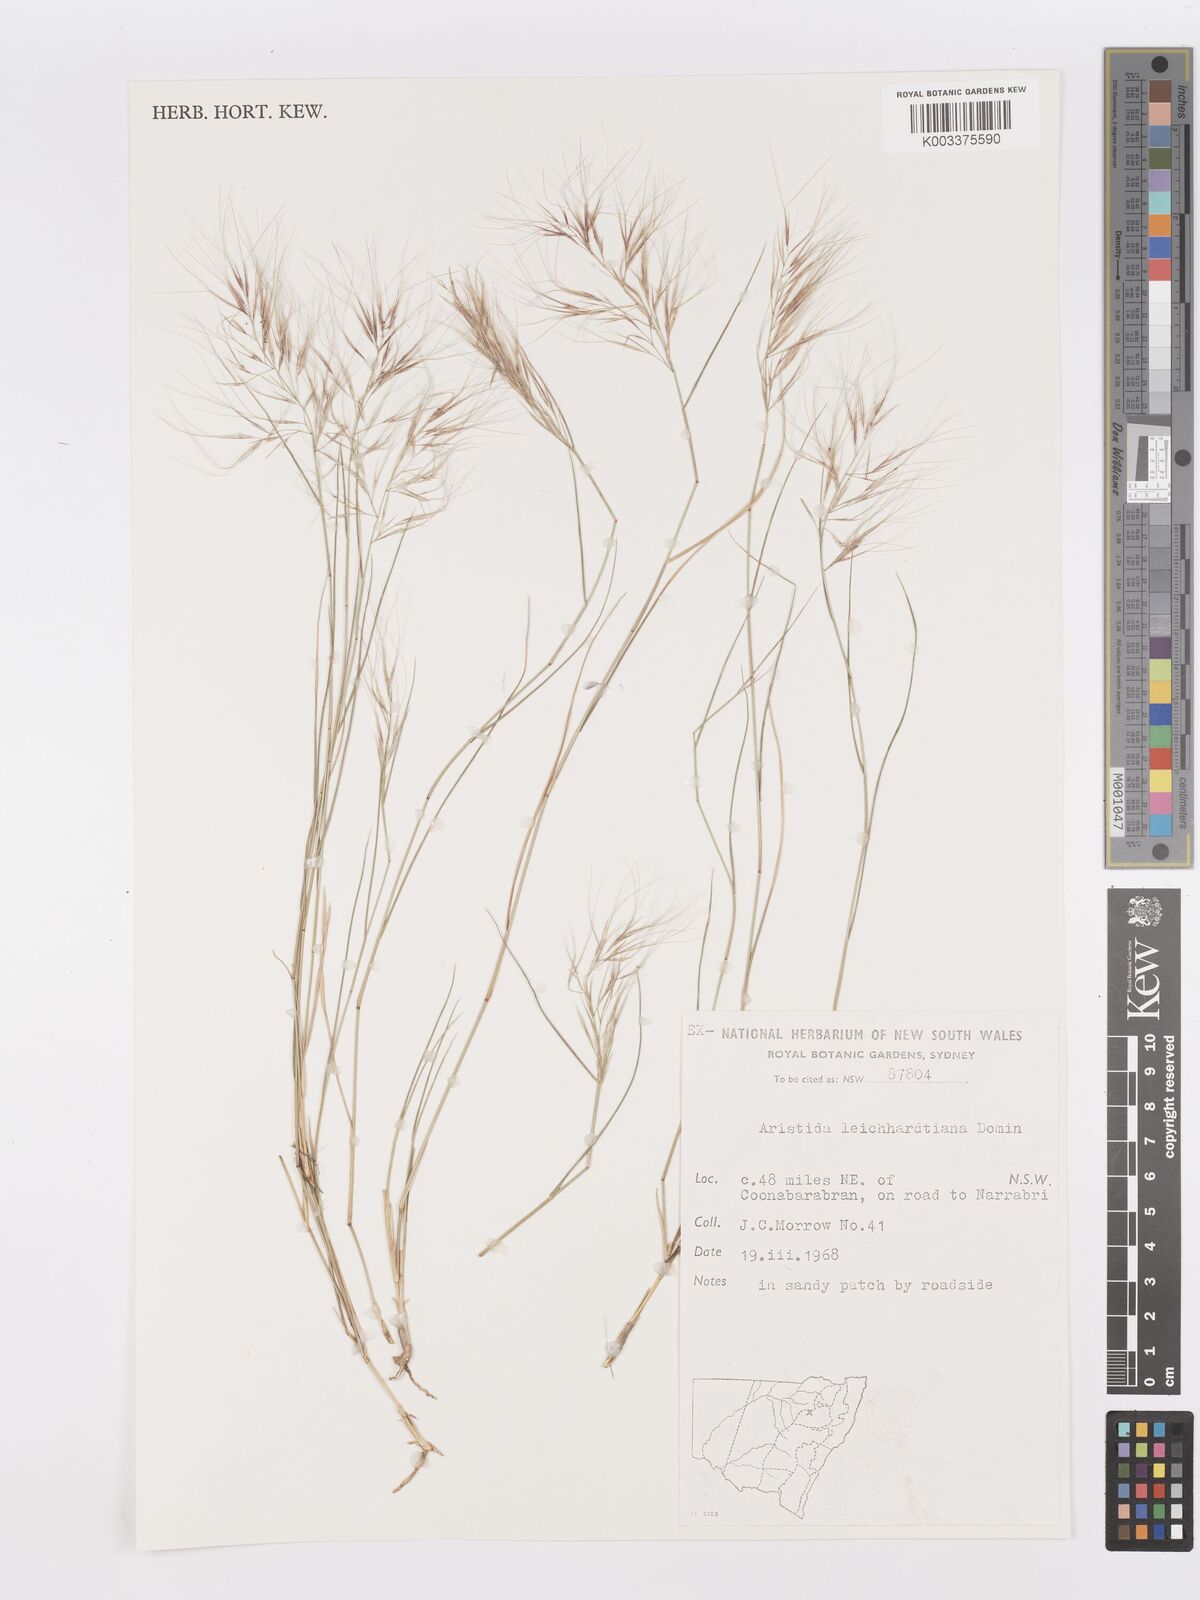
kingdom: Plantae
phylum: Tracheophyta
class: Liliopsida
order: Poales
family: Poaceae
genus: Aristida
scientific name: Aristida leichhardtiana
